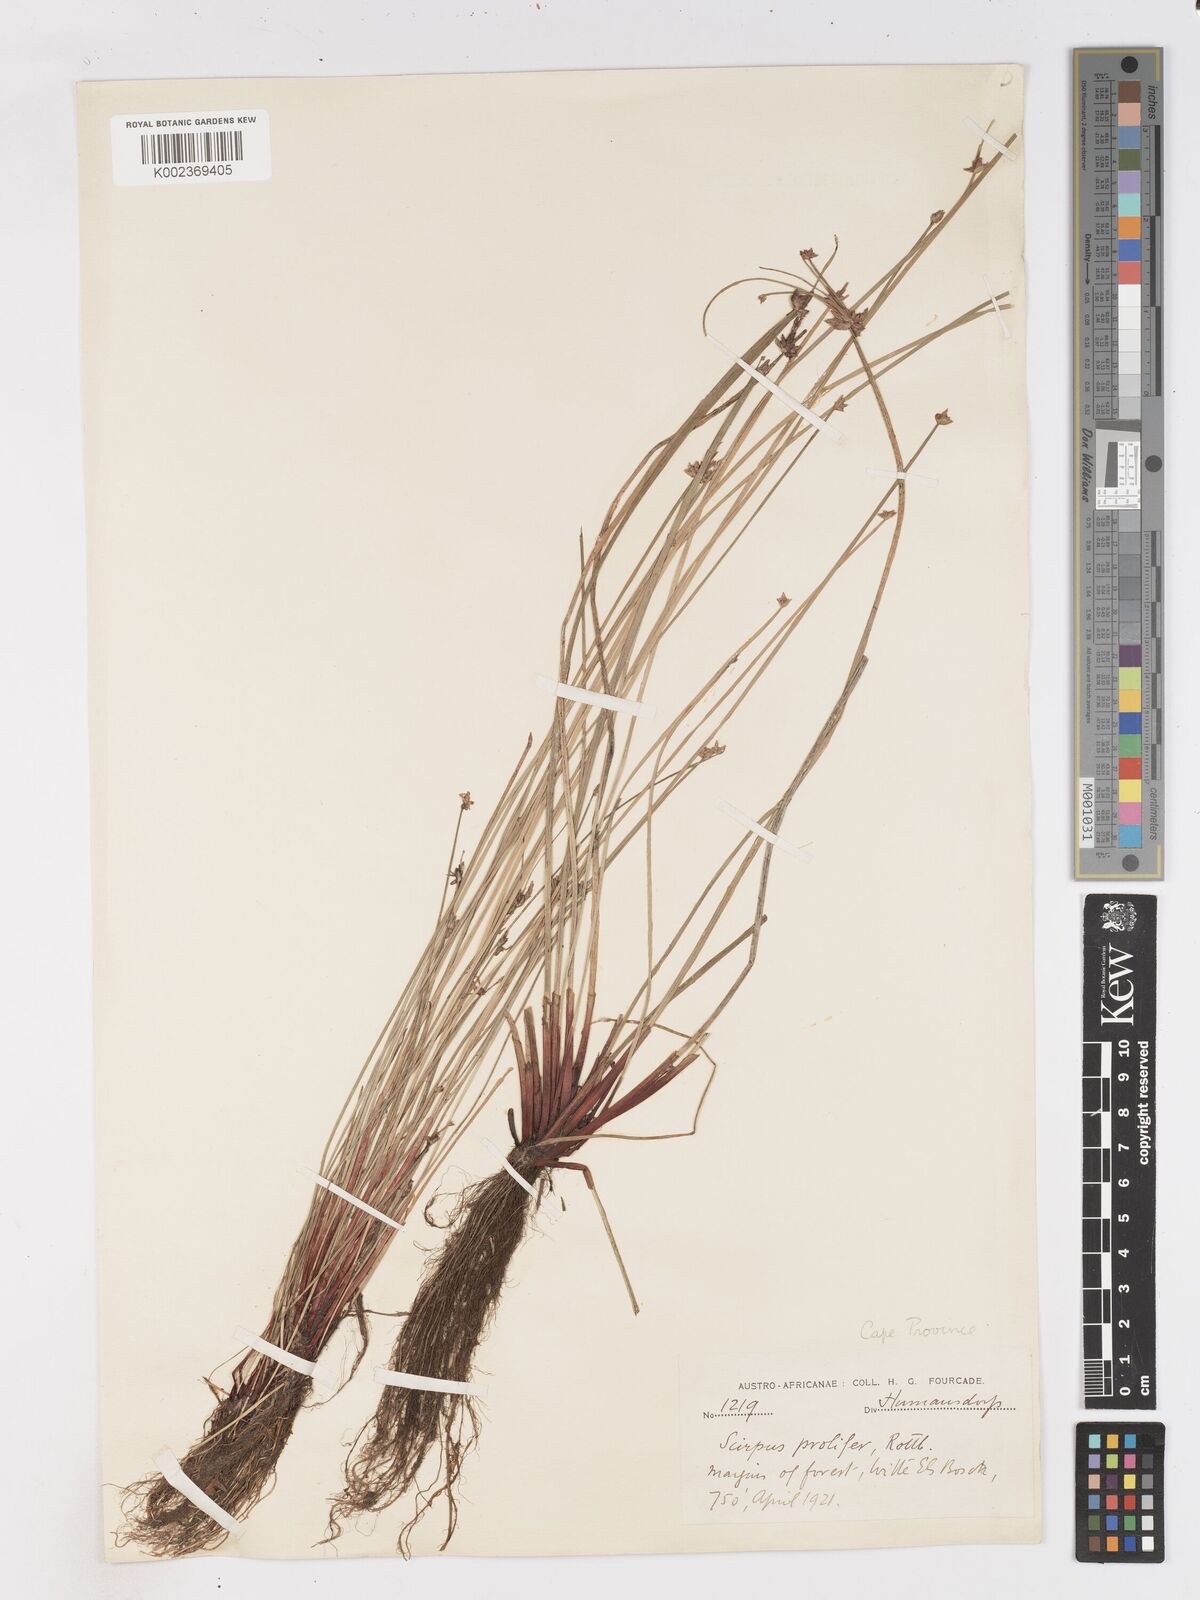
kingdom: Plantae
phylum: Tracheophyta
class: Liliopsida
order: Poales
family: Cyperaceae
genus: Isolepis
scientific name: Isolepis prolifera
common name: Proliferating bulrush
